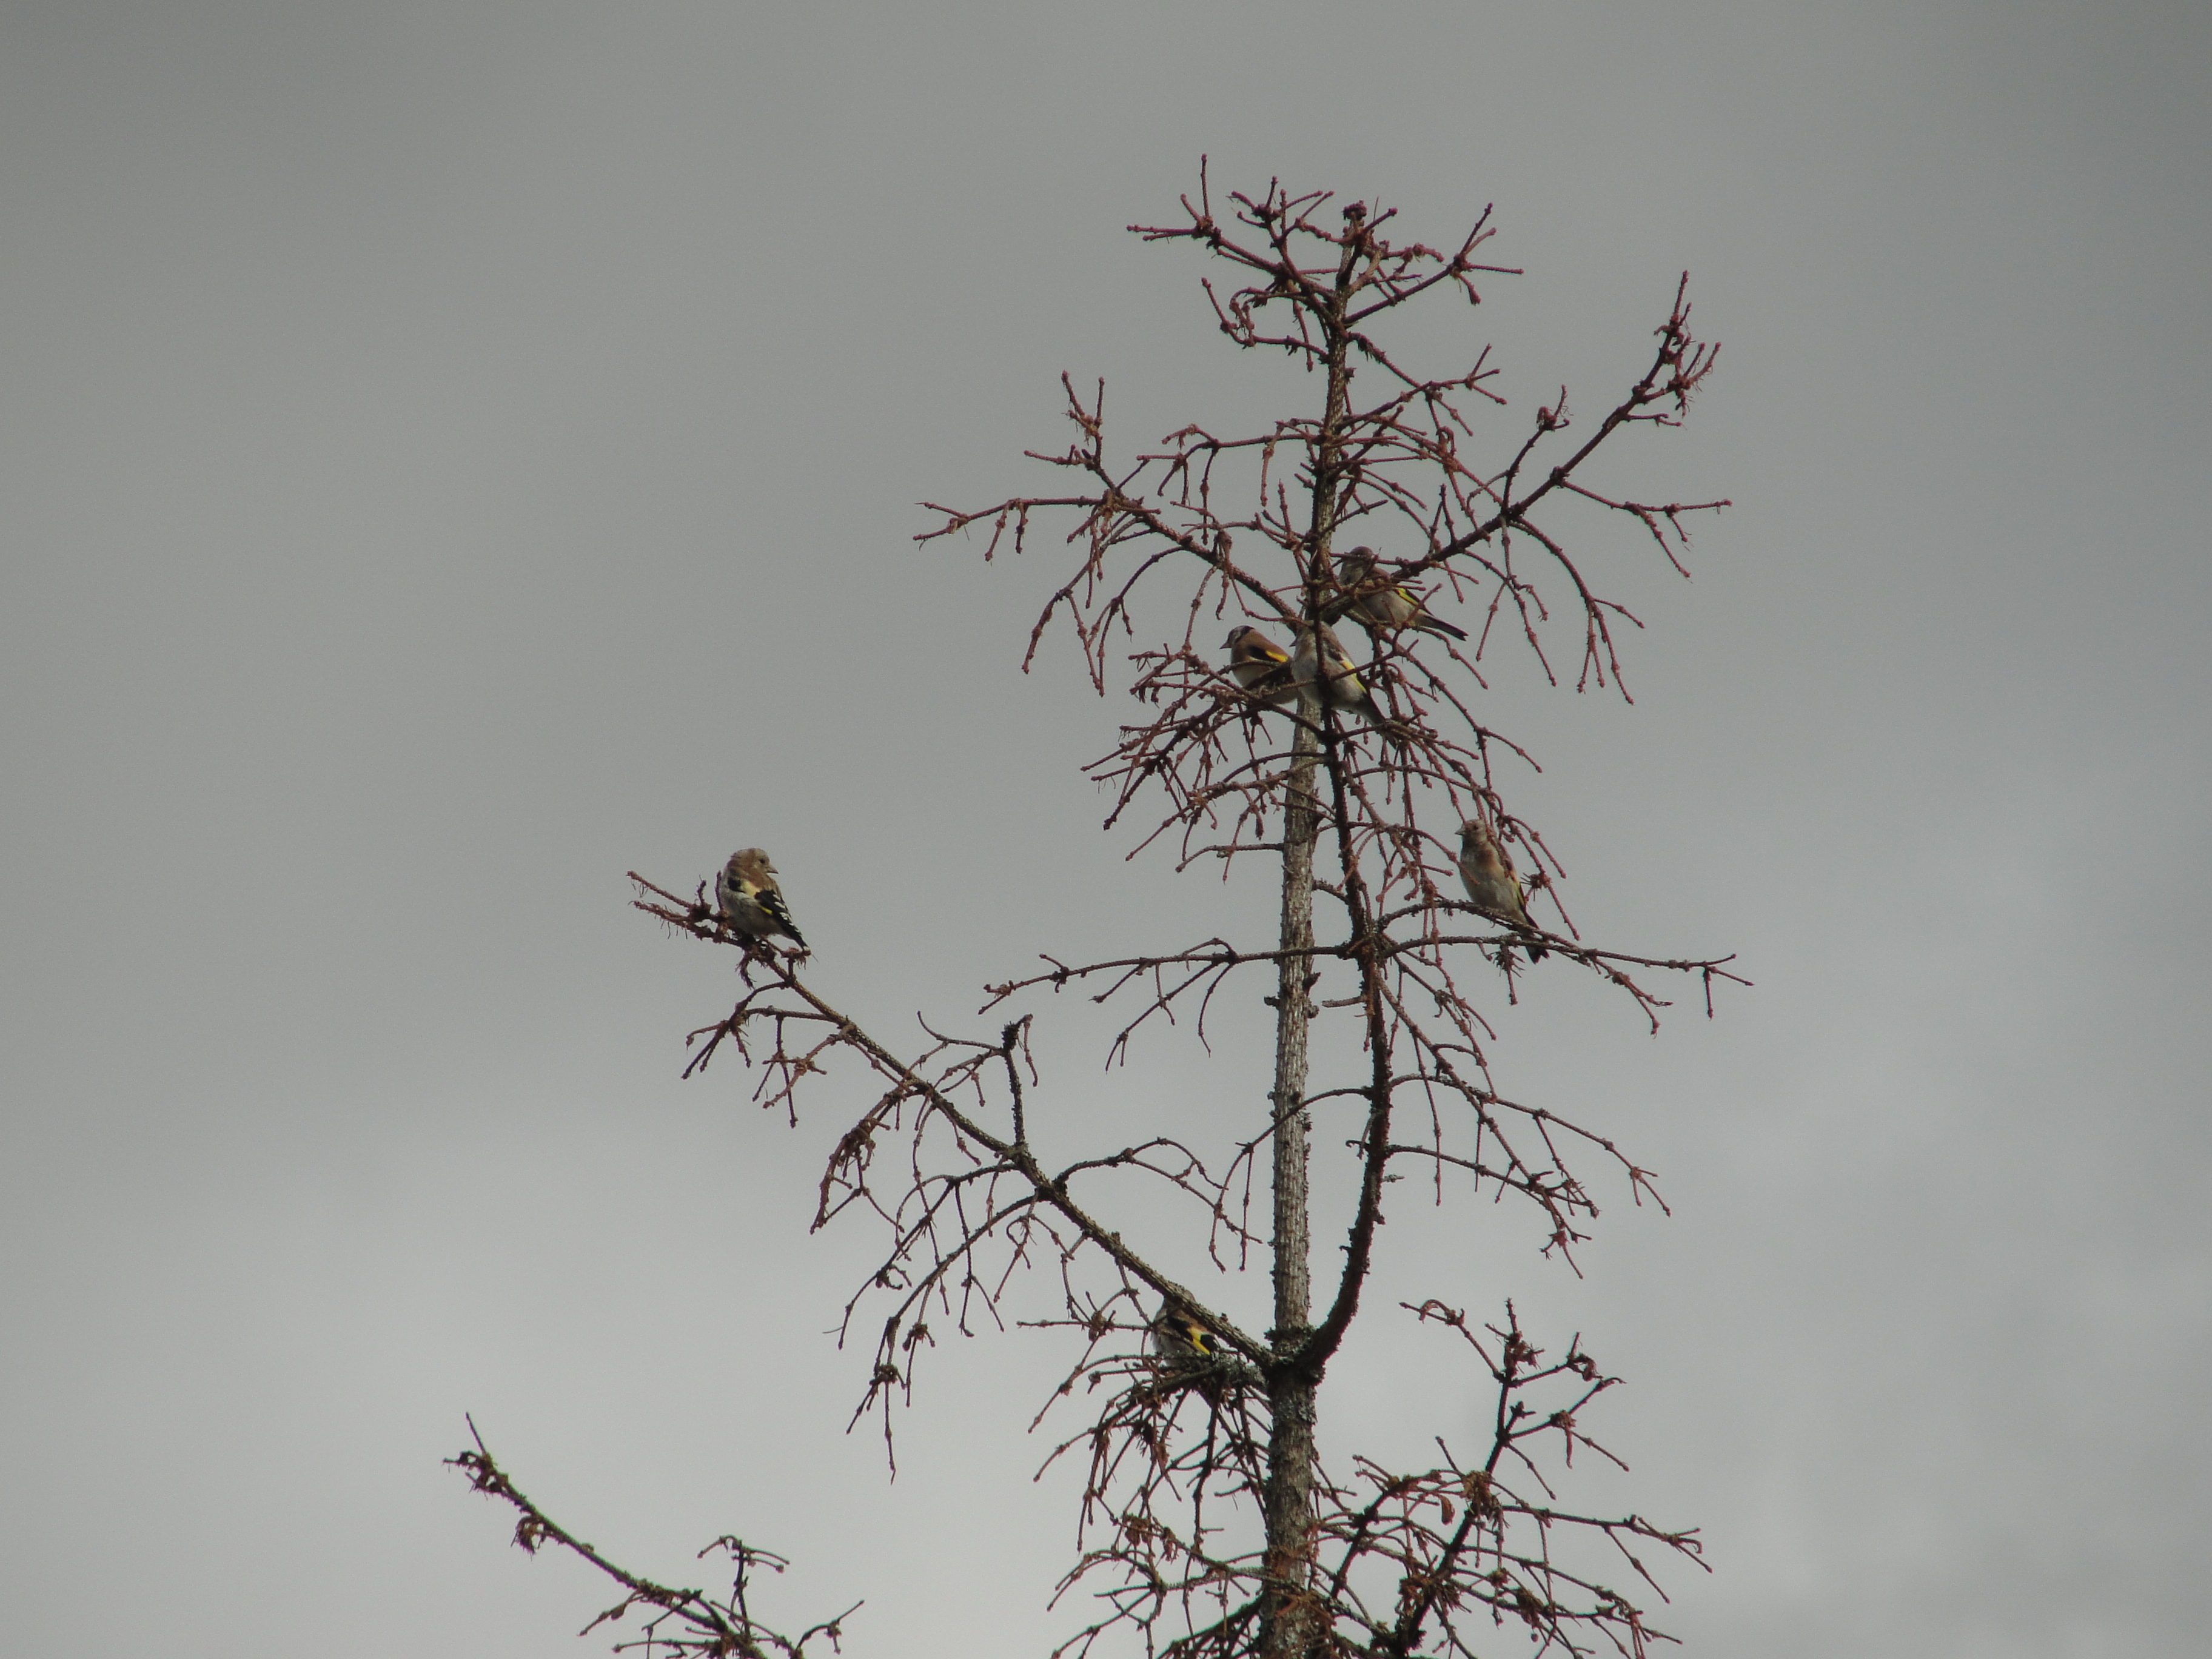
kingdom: Animalia
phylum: Chordata
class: Aves
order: Passeriformes
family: Fringillidae
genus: Carduelis
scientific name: Carduelis carduelis
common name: European goldfinch
